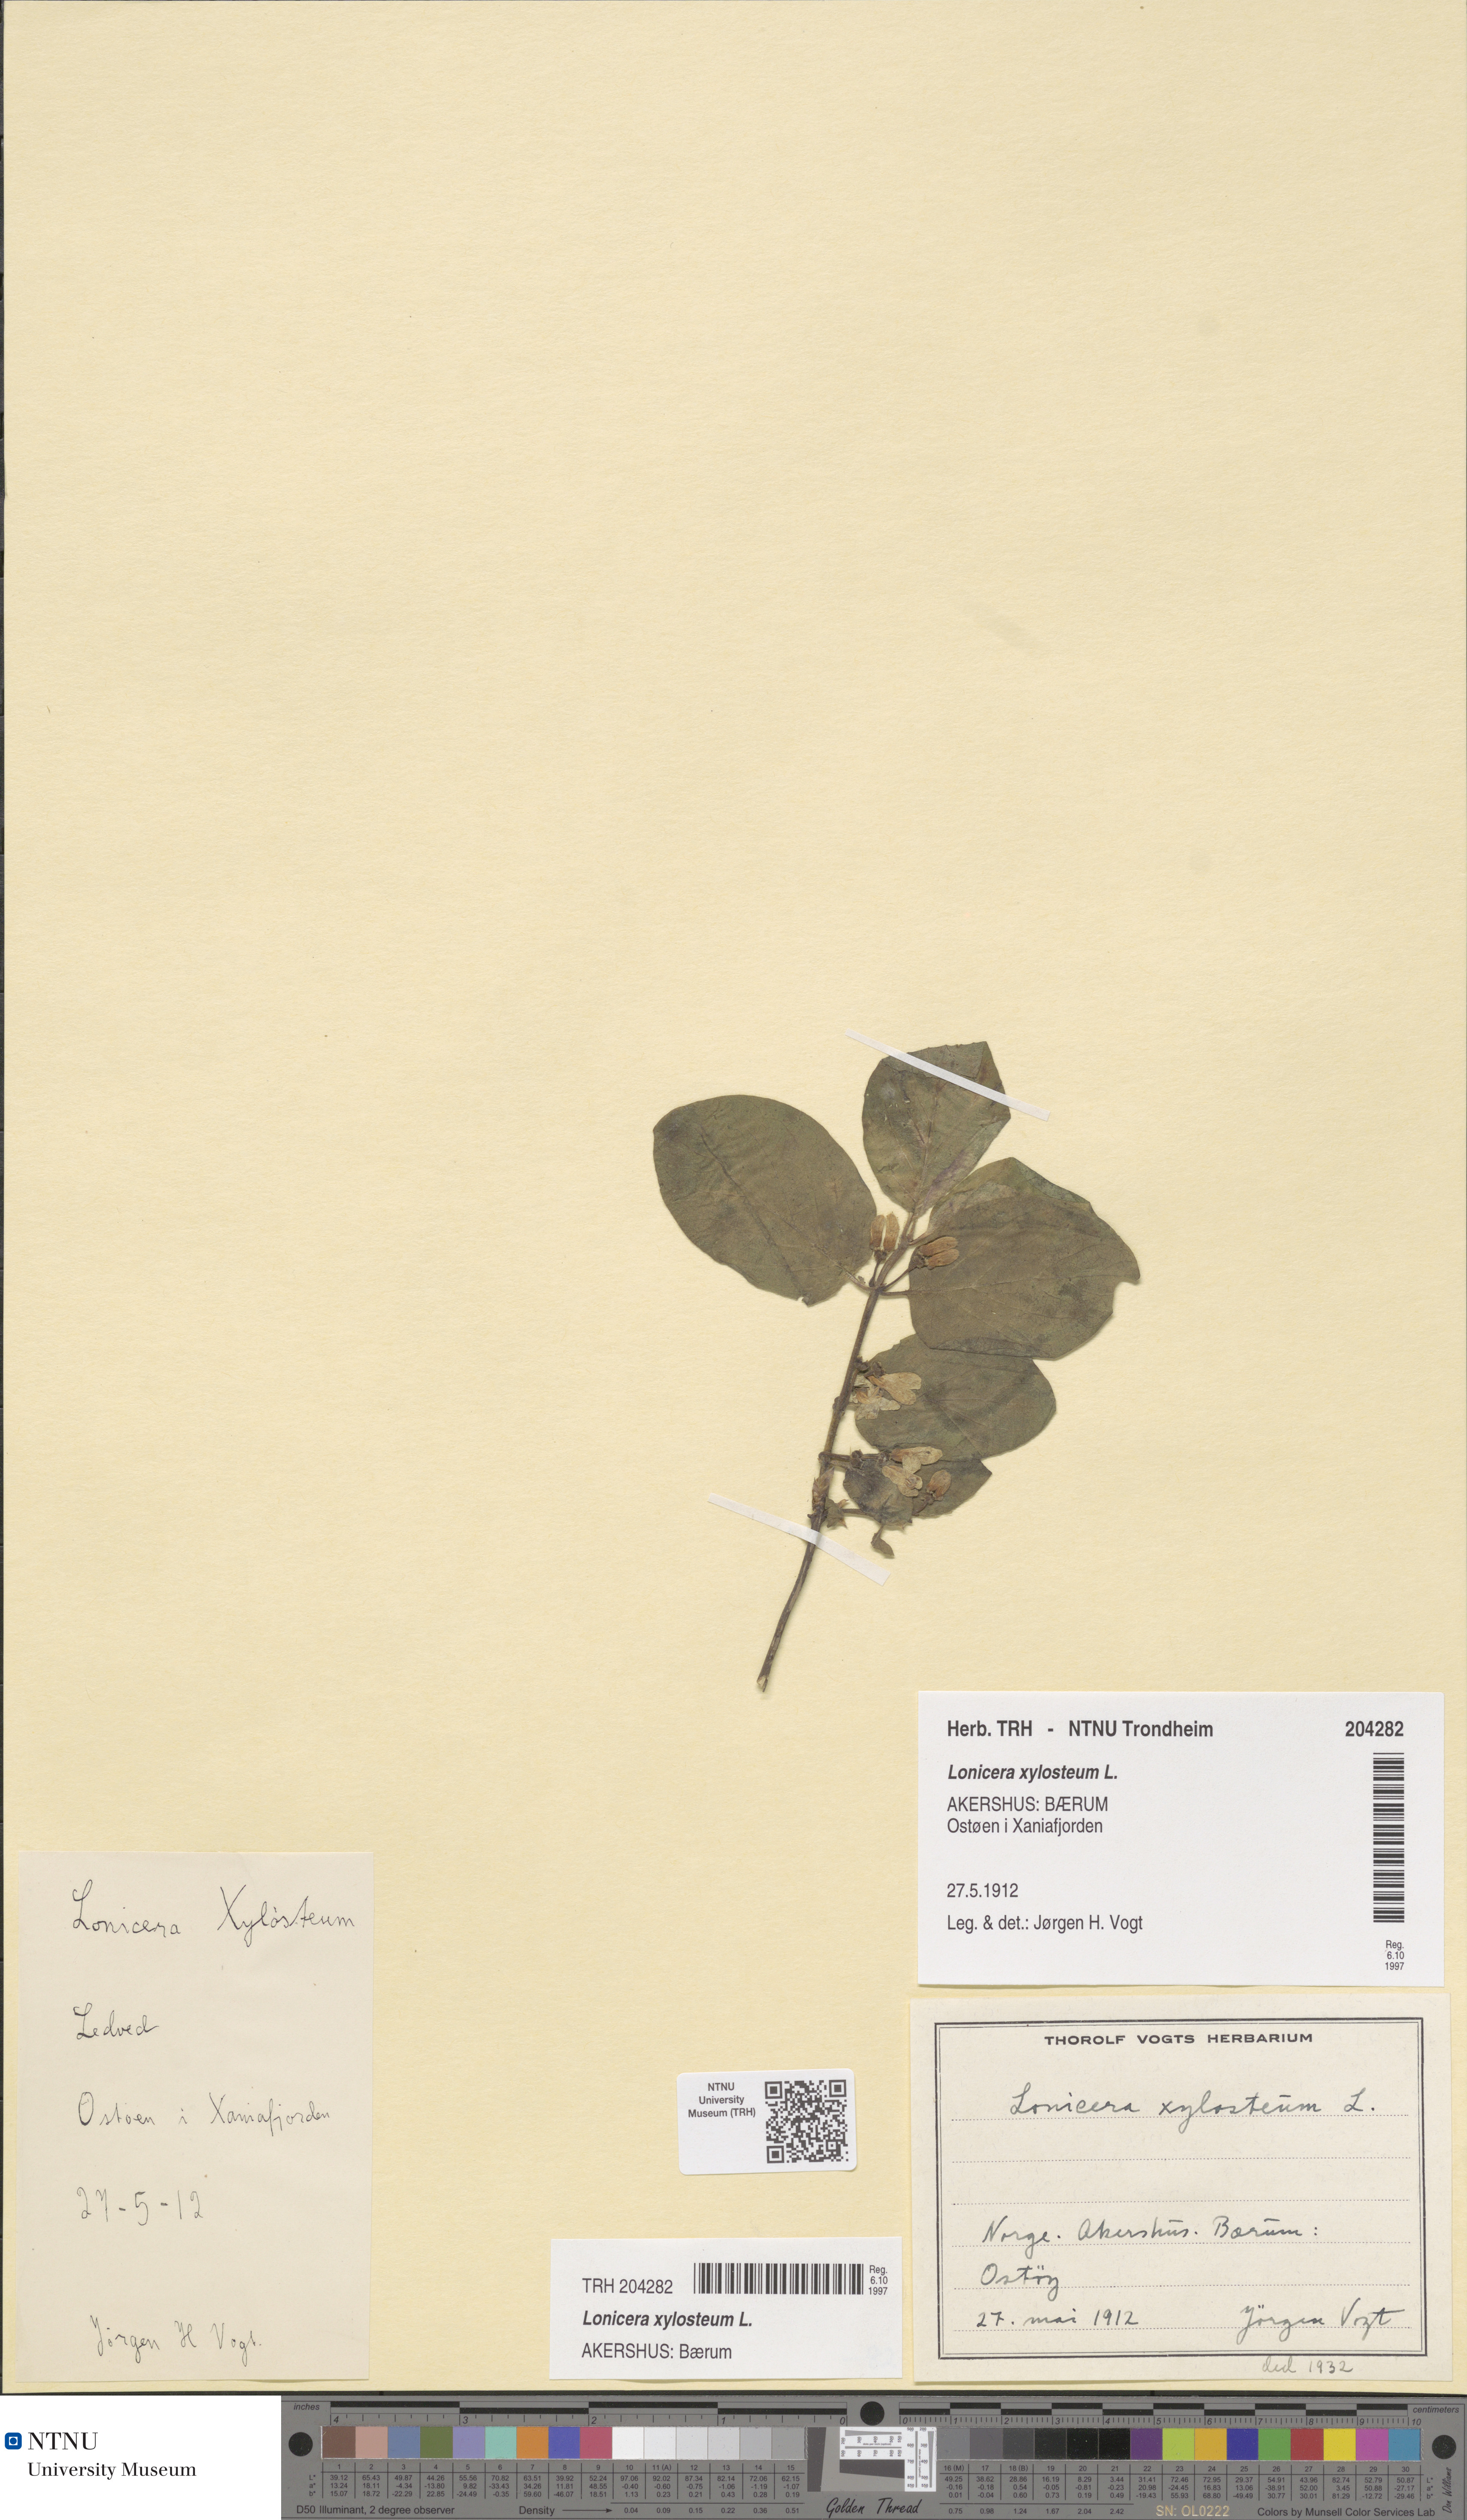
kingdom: Plantae
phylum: Tracheophyta
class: Magnoliopsida
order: Dipsacales
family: Caprifoliaceae
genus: Lonicera
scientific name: Lonicera xylosteum
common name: Fly honeysuckle
